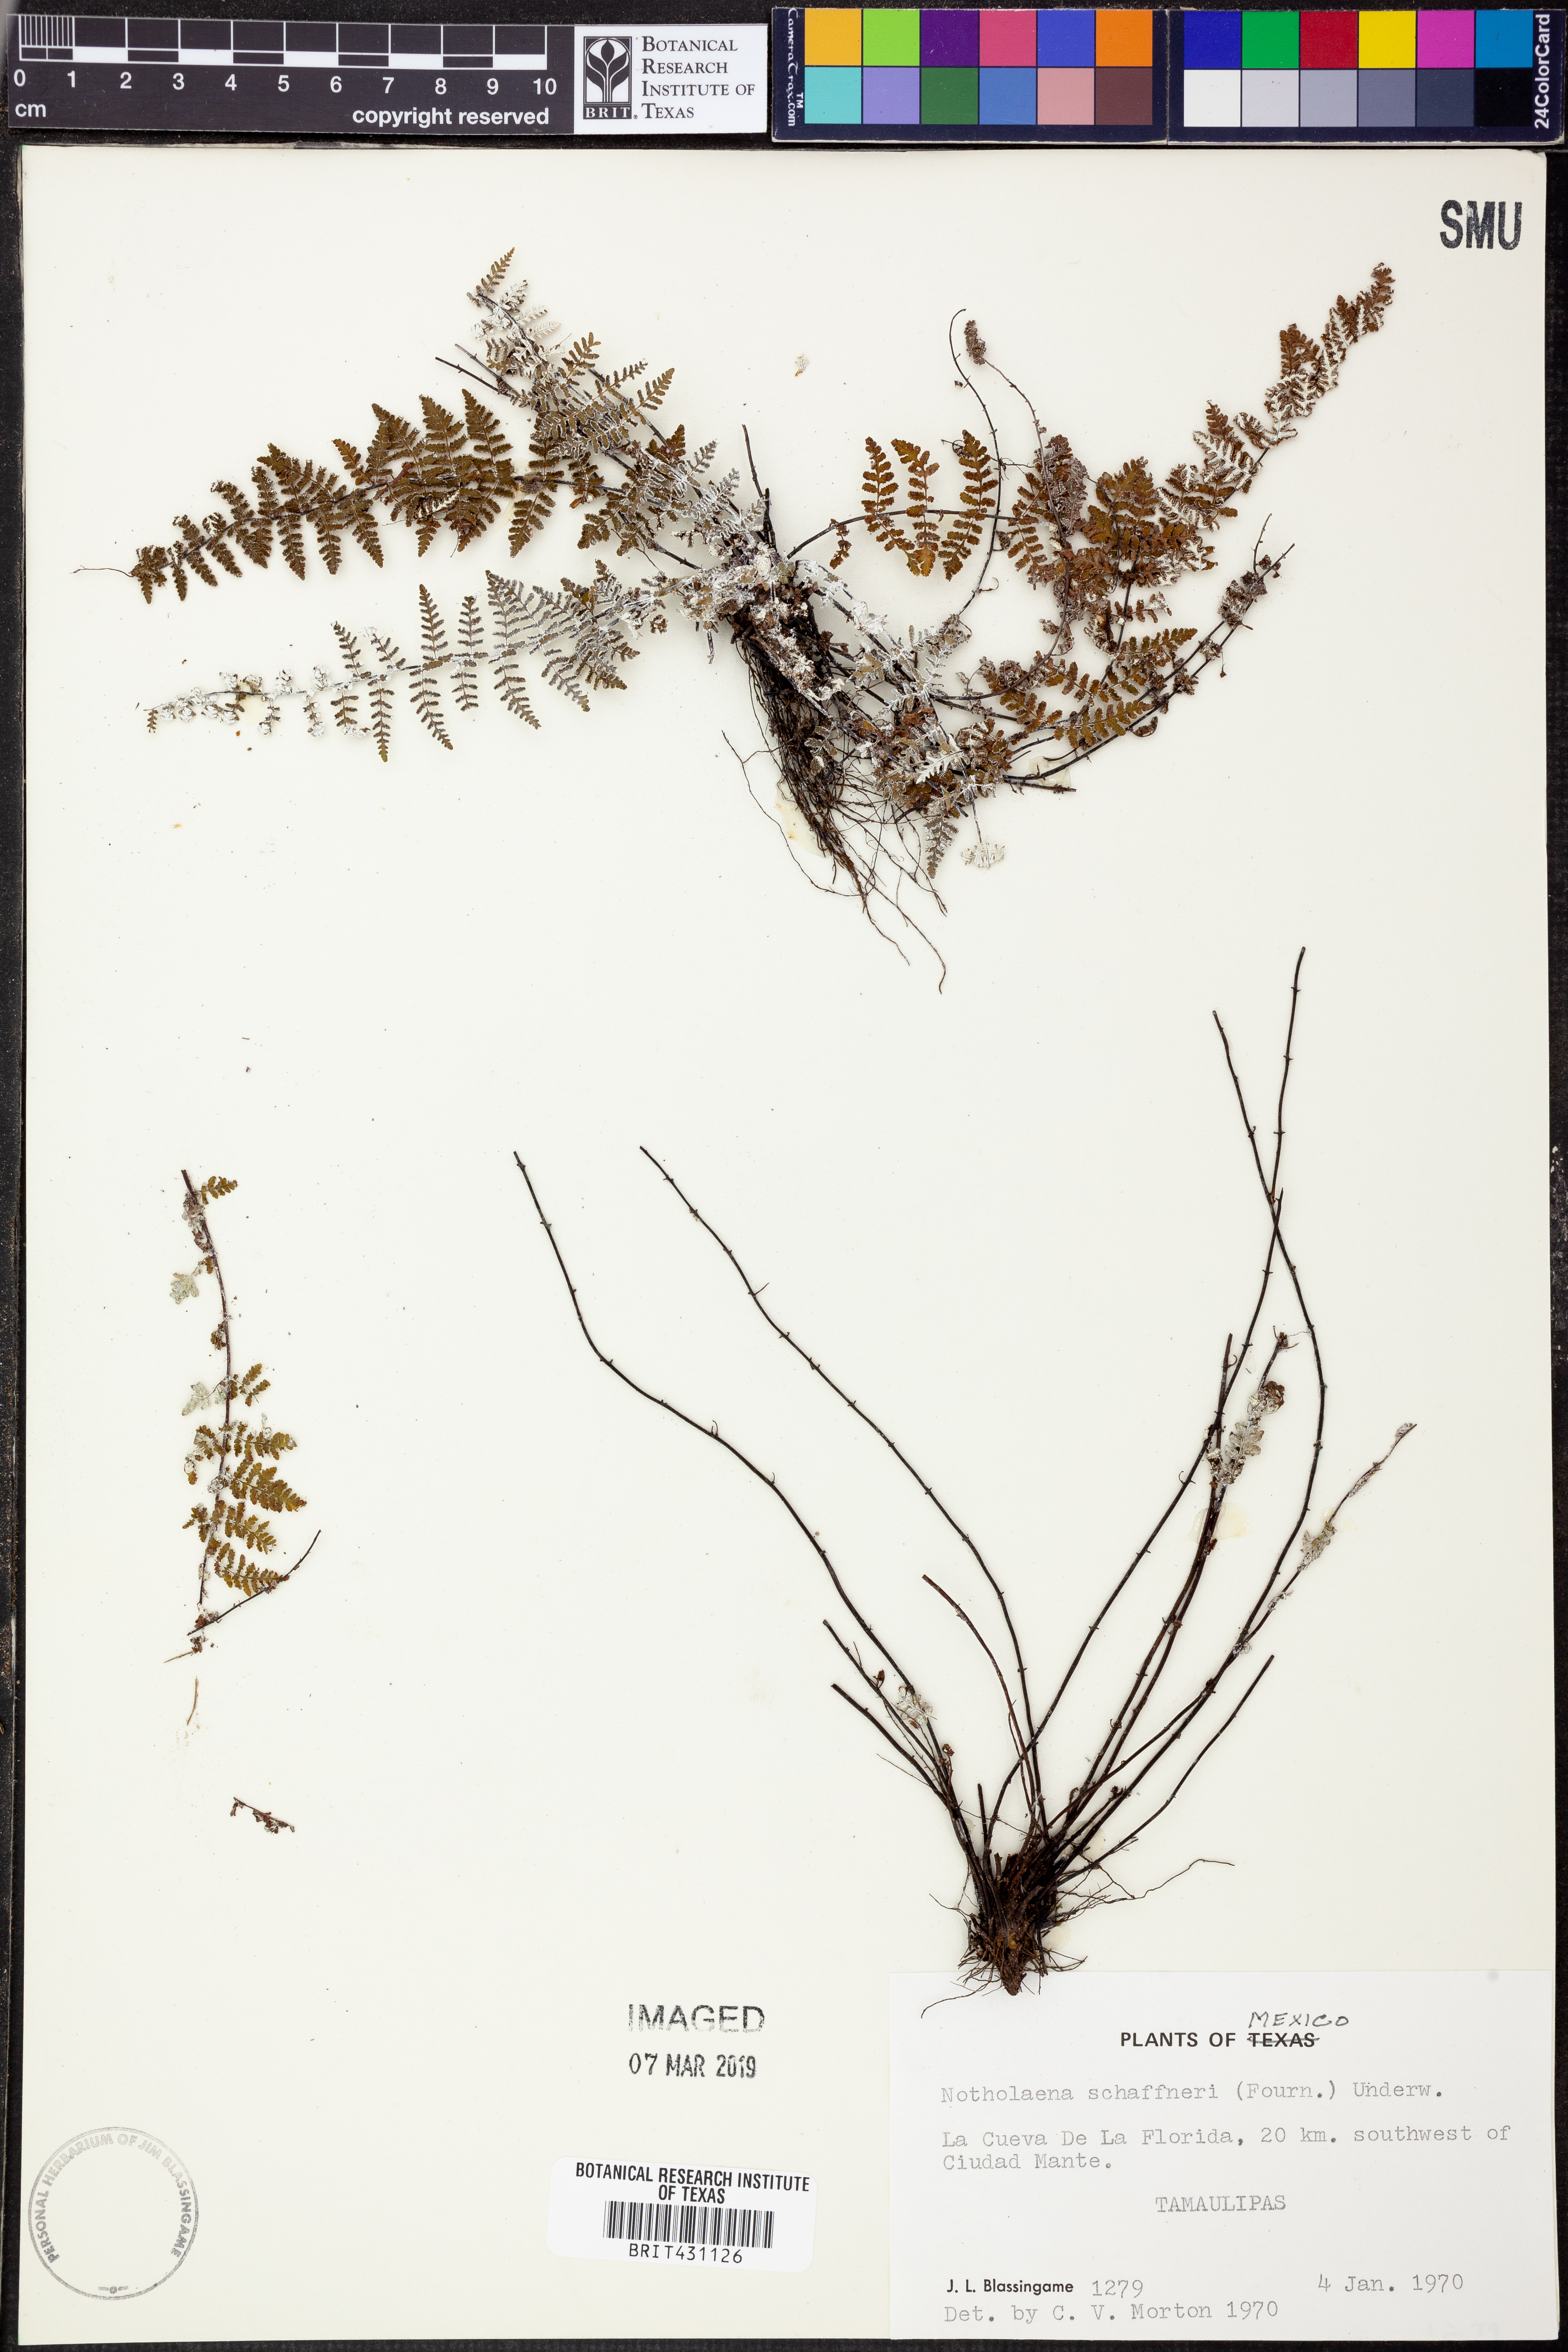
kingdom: Plantae
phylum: Tracheophyta
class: Polypodiopsida
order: Polypodiales
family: Pteridaceae
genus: Notholaena
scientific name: Notholaena schaffneri
